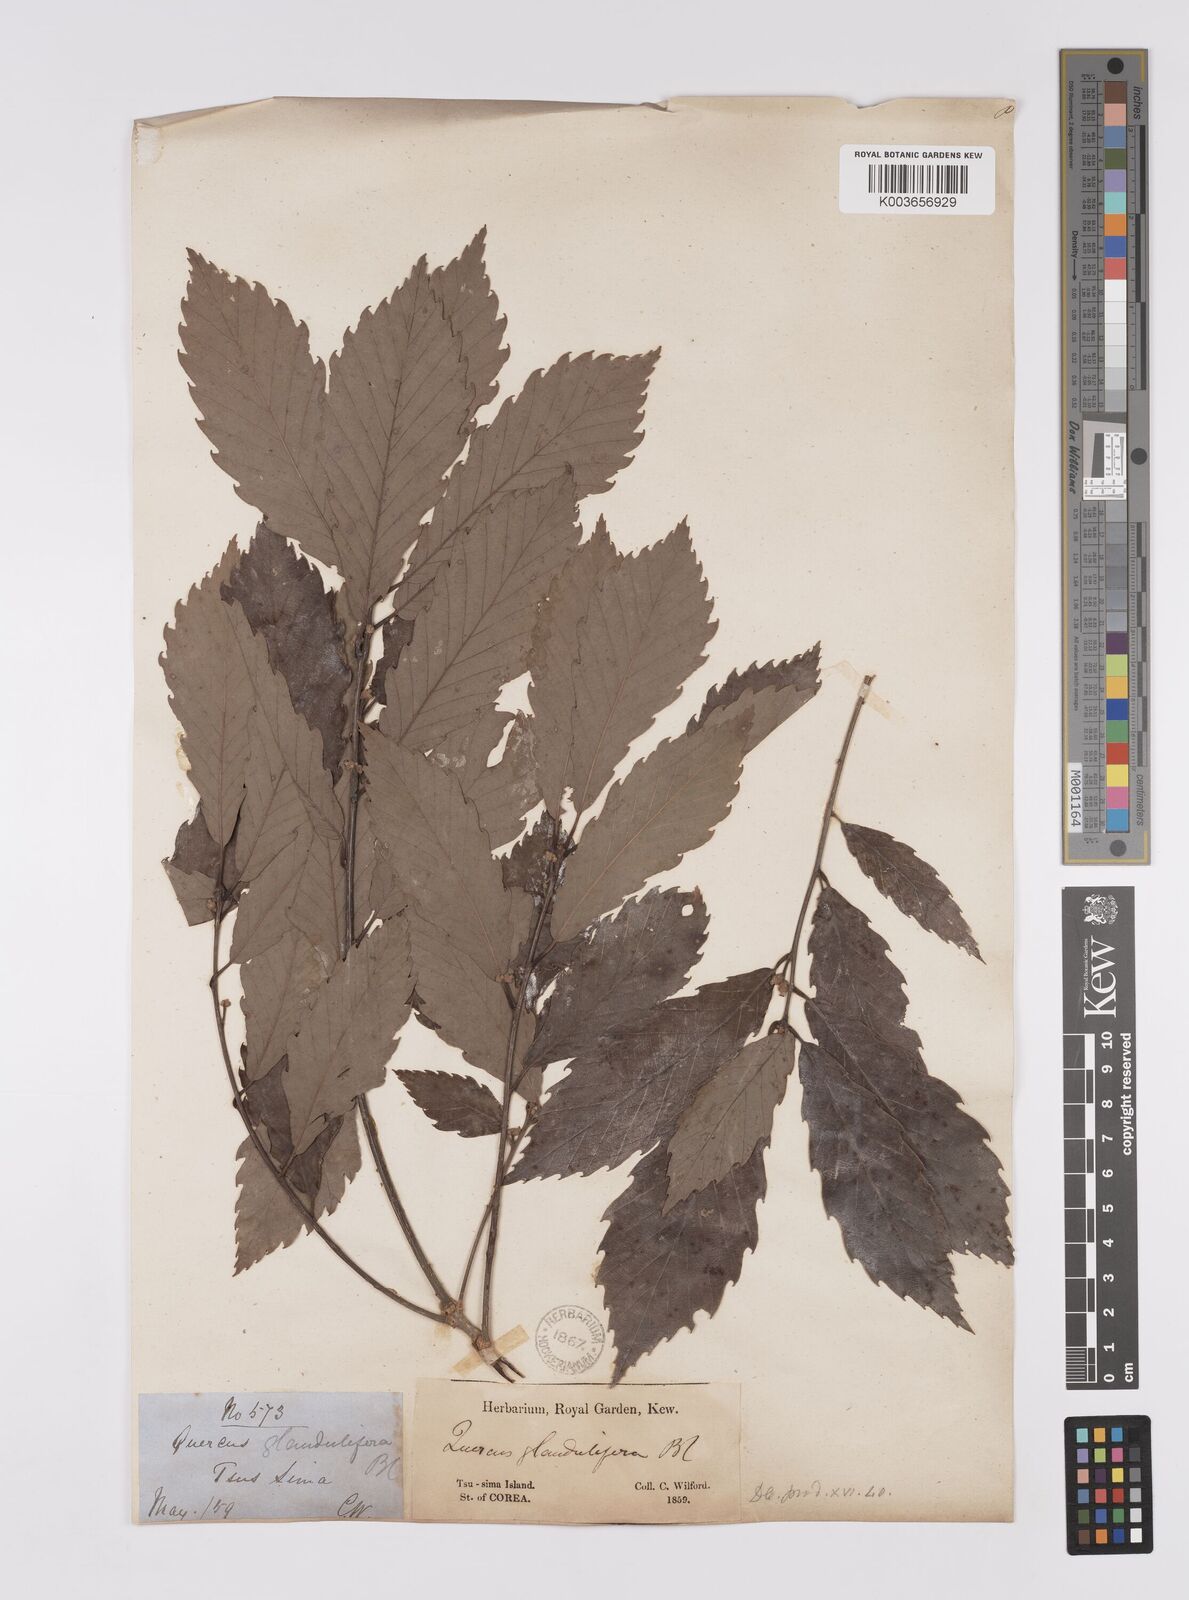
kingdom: Plantae
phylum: Tracheophyta
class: Magnoliopsida
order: Fagales
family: Fagaceae
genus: Quercus
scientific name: Quercus serrata
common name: Bao li
